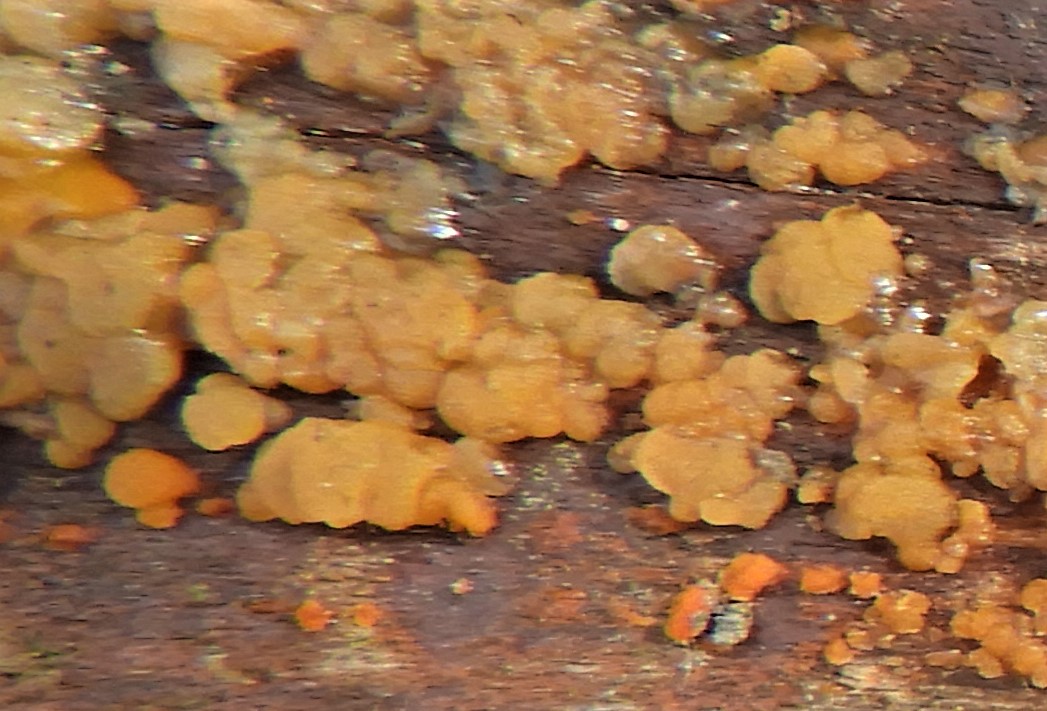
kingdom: Fungi
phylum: Basidiomycota
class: Dacrymycetes
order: Dacrymycetales
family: Dacrymycetaceae
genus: Dacrymyces
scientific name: Dacrymyces
